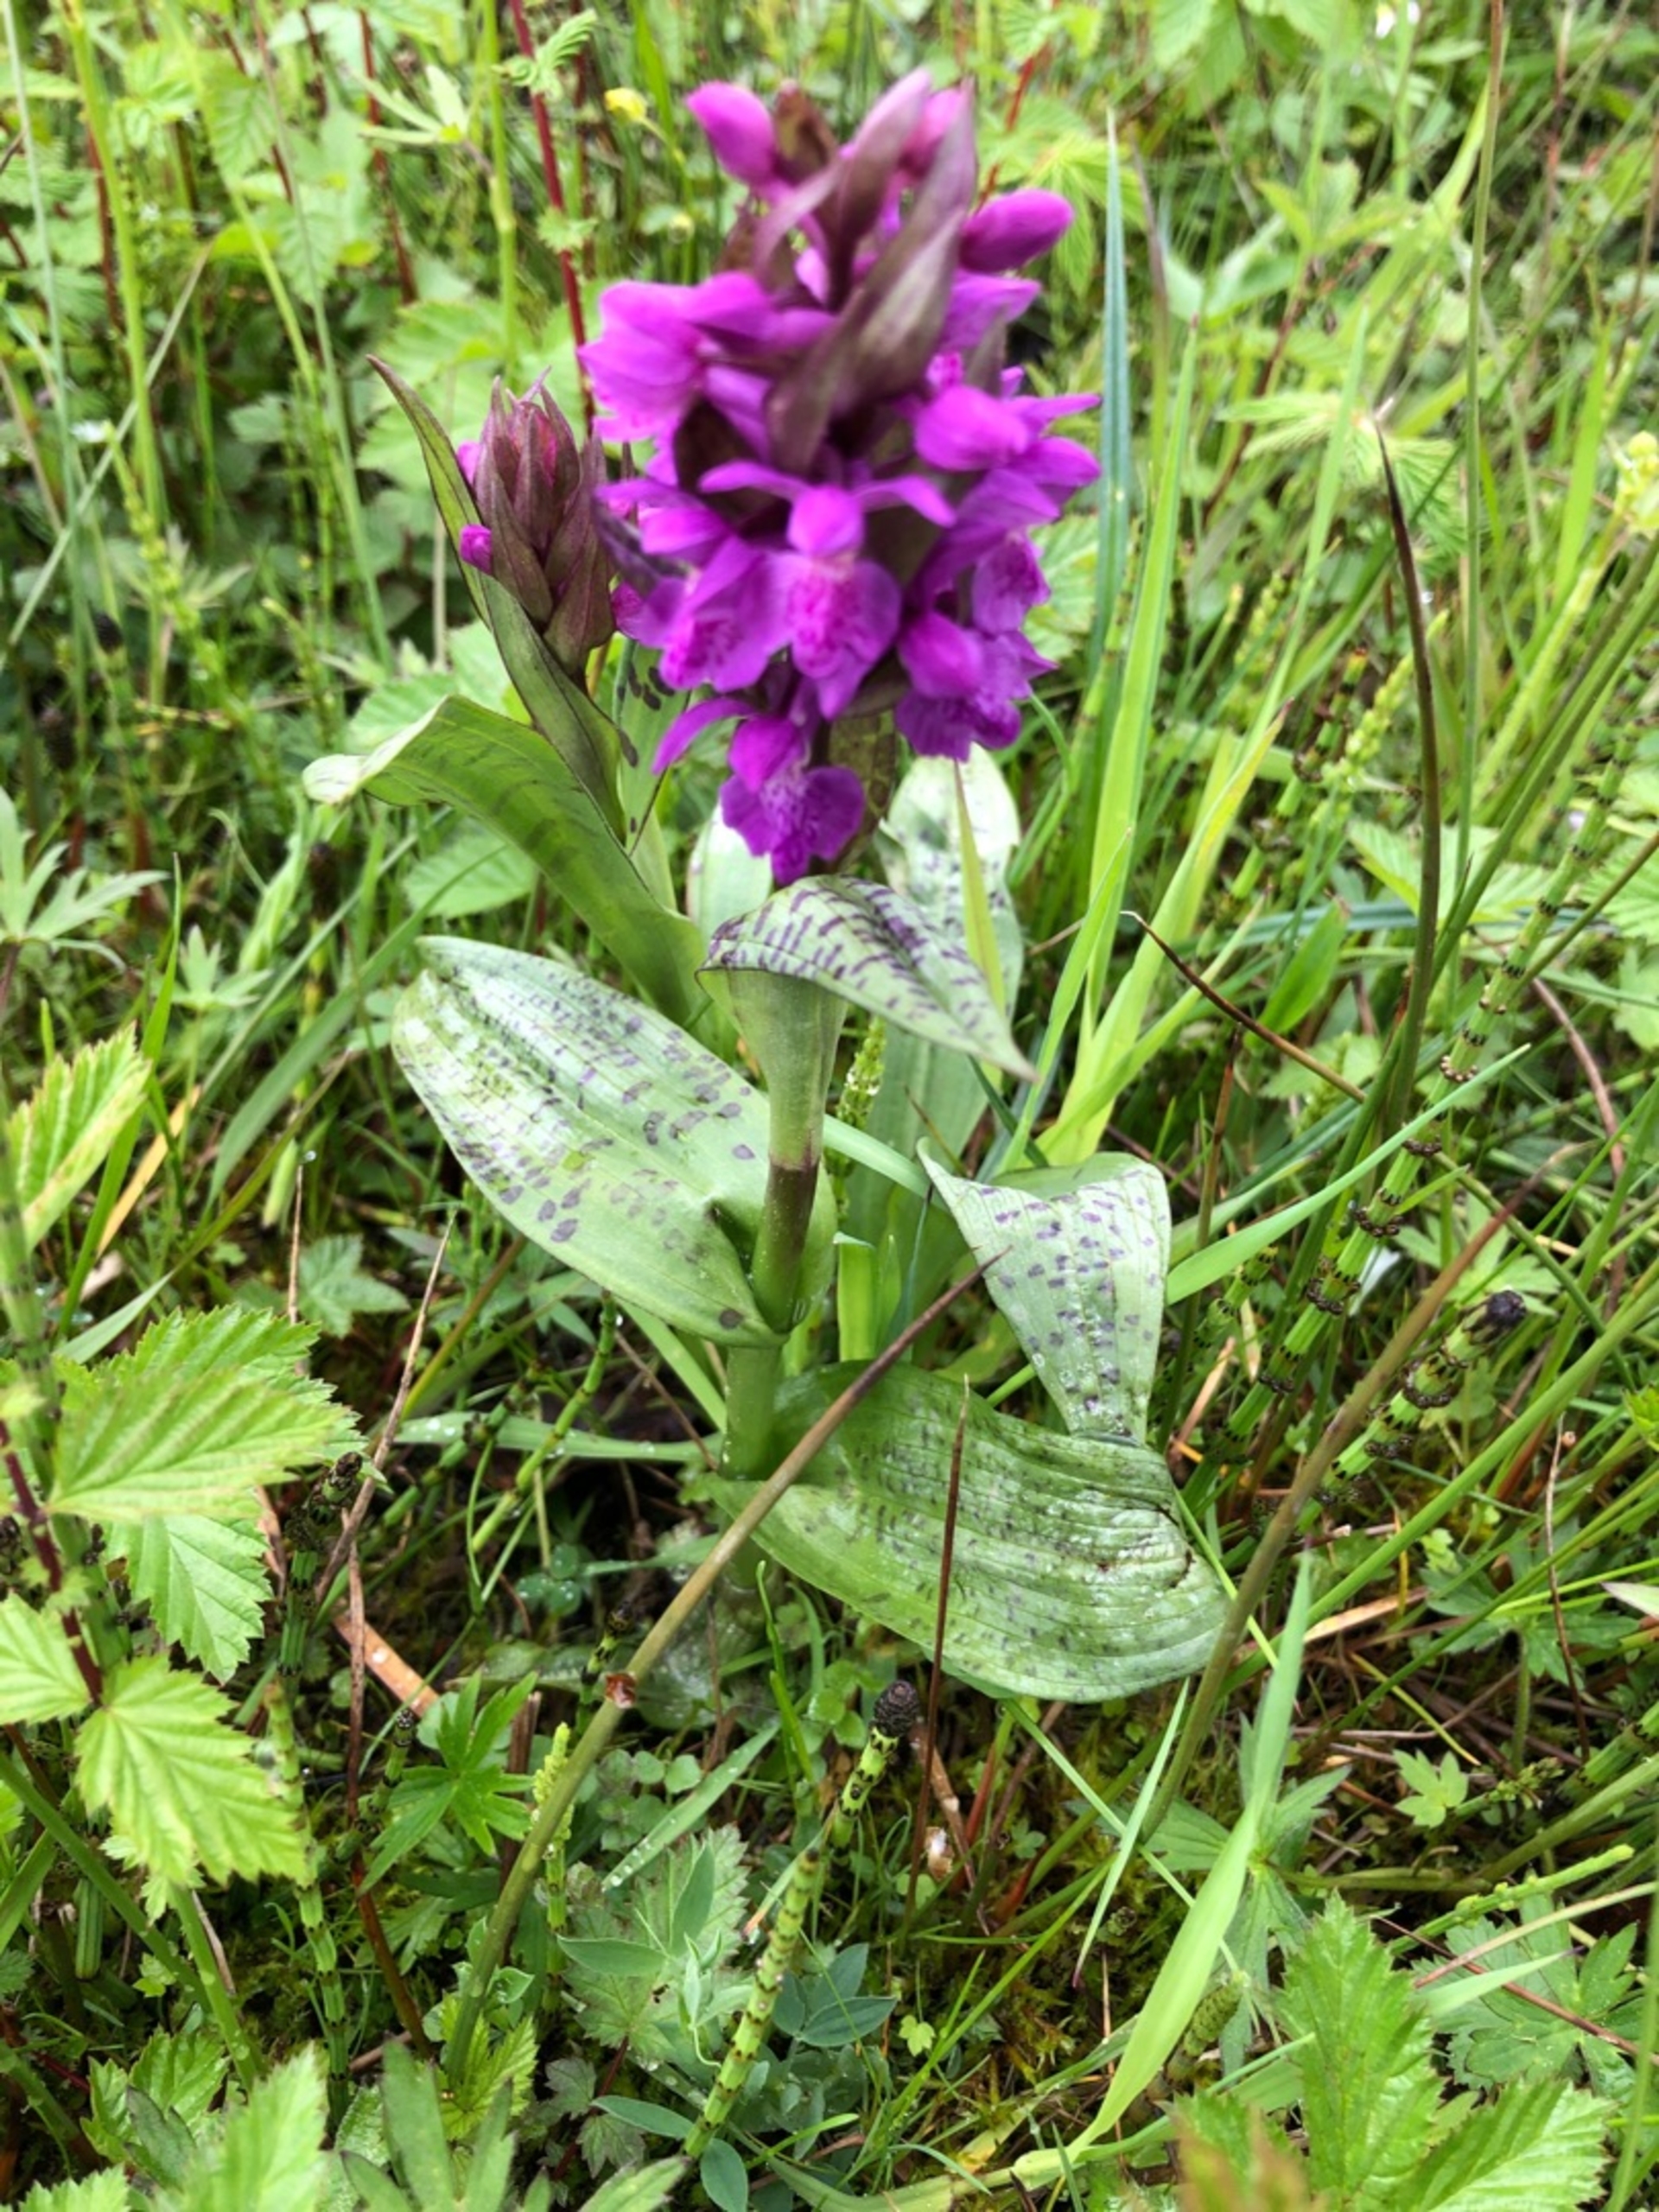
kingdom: Plantae
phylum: Tracheophyta
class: Liliopsida
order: Asparagales
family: Orchidaceae
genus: Dactylorhiza
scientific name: Dactylorhiza majalis
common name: Maj-gøgeurt
